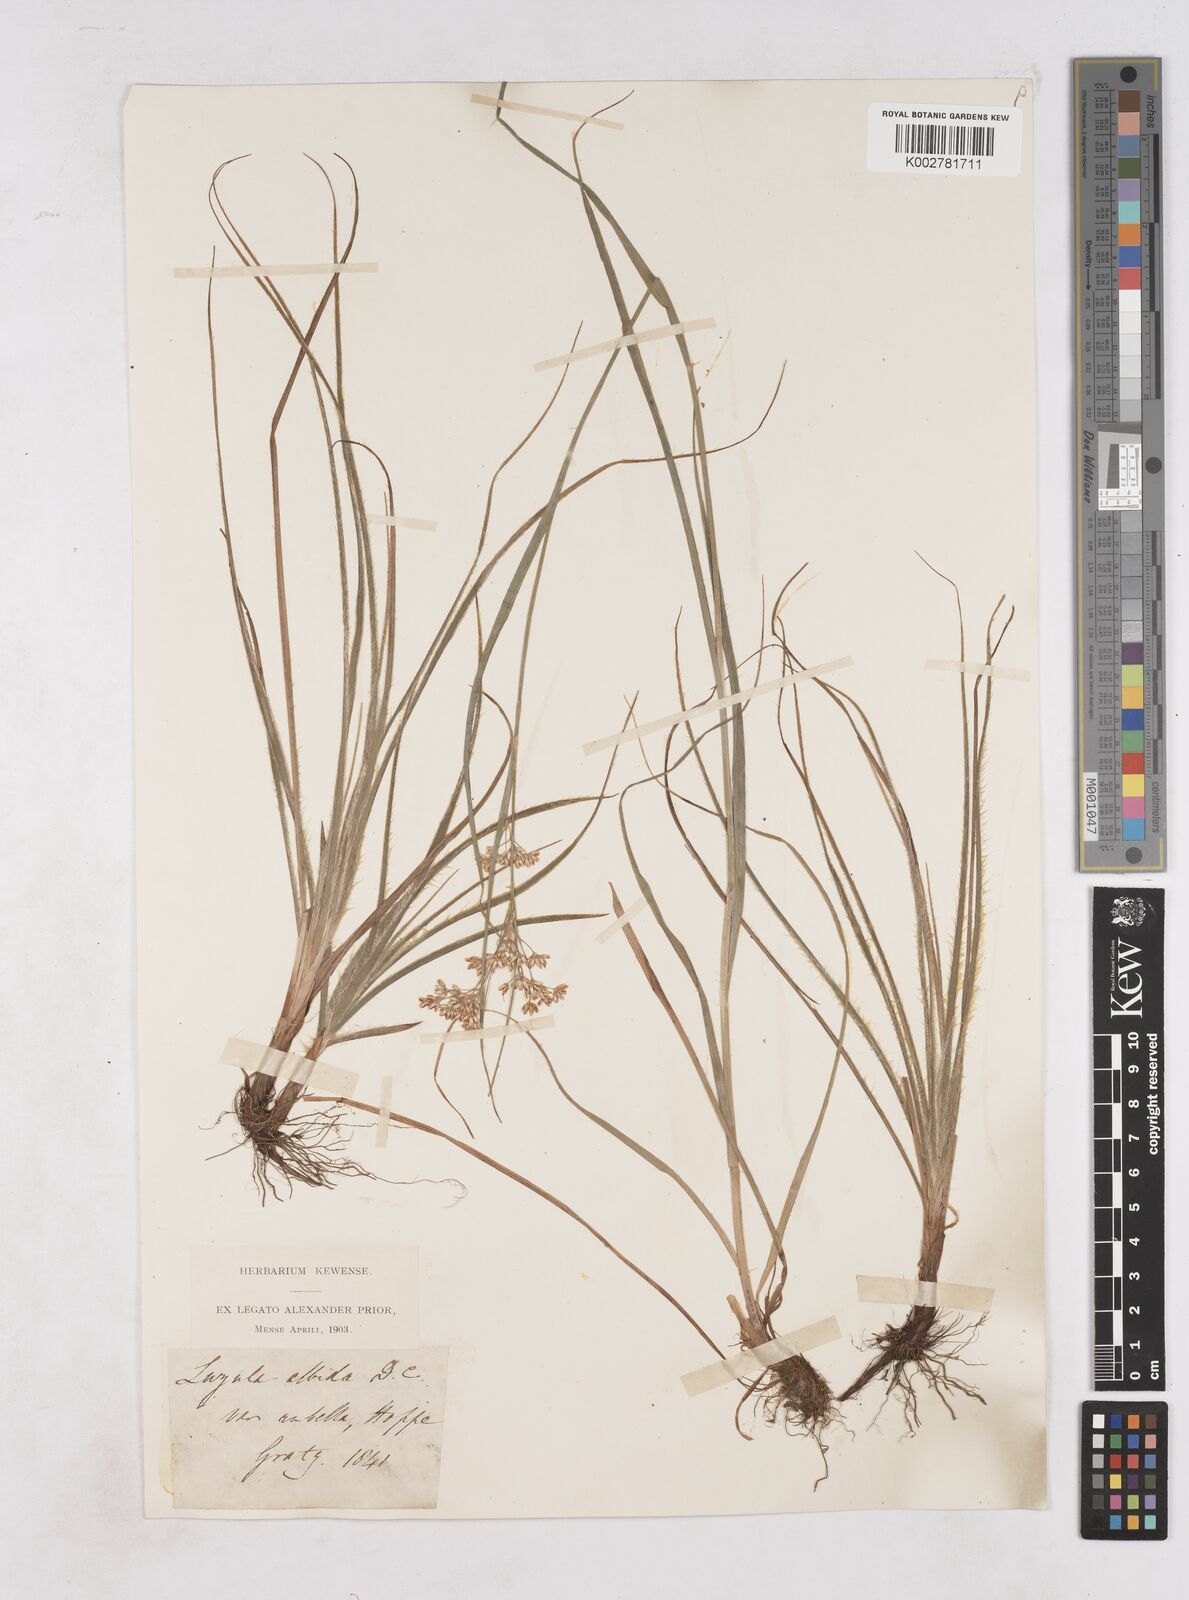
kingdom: Plantae
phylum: Tracheophyta
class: Liliopsida
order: Poales
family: Juncaceae
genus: Luzula
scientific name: Luzula luzuloides
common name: White wood-rush
